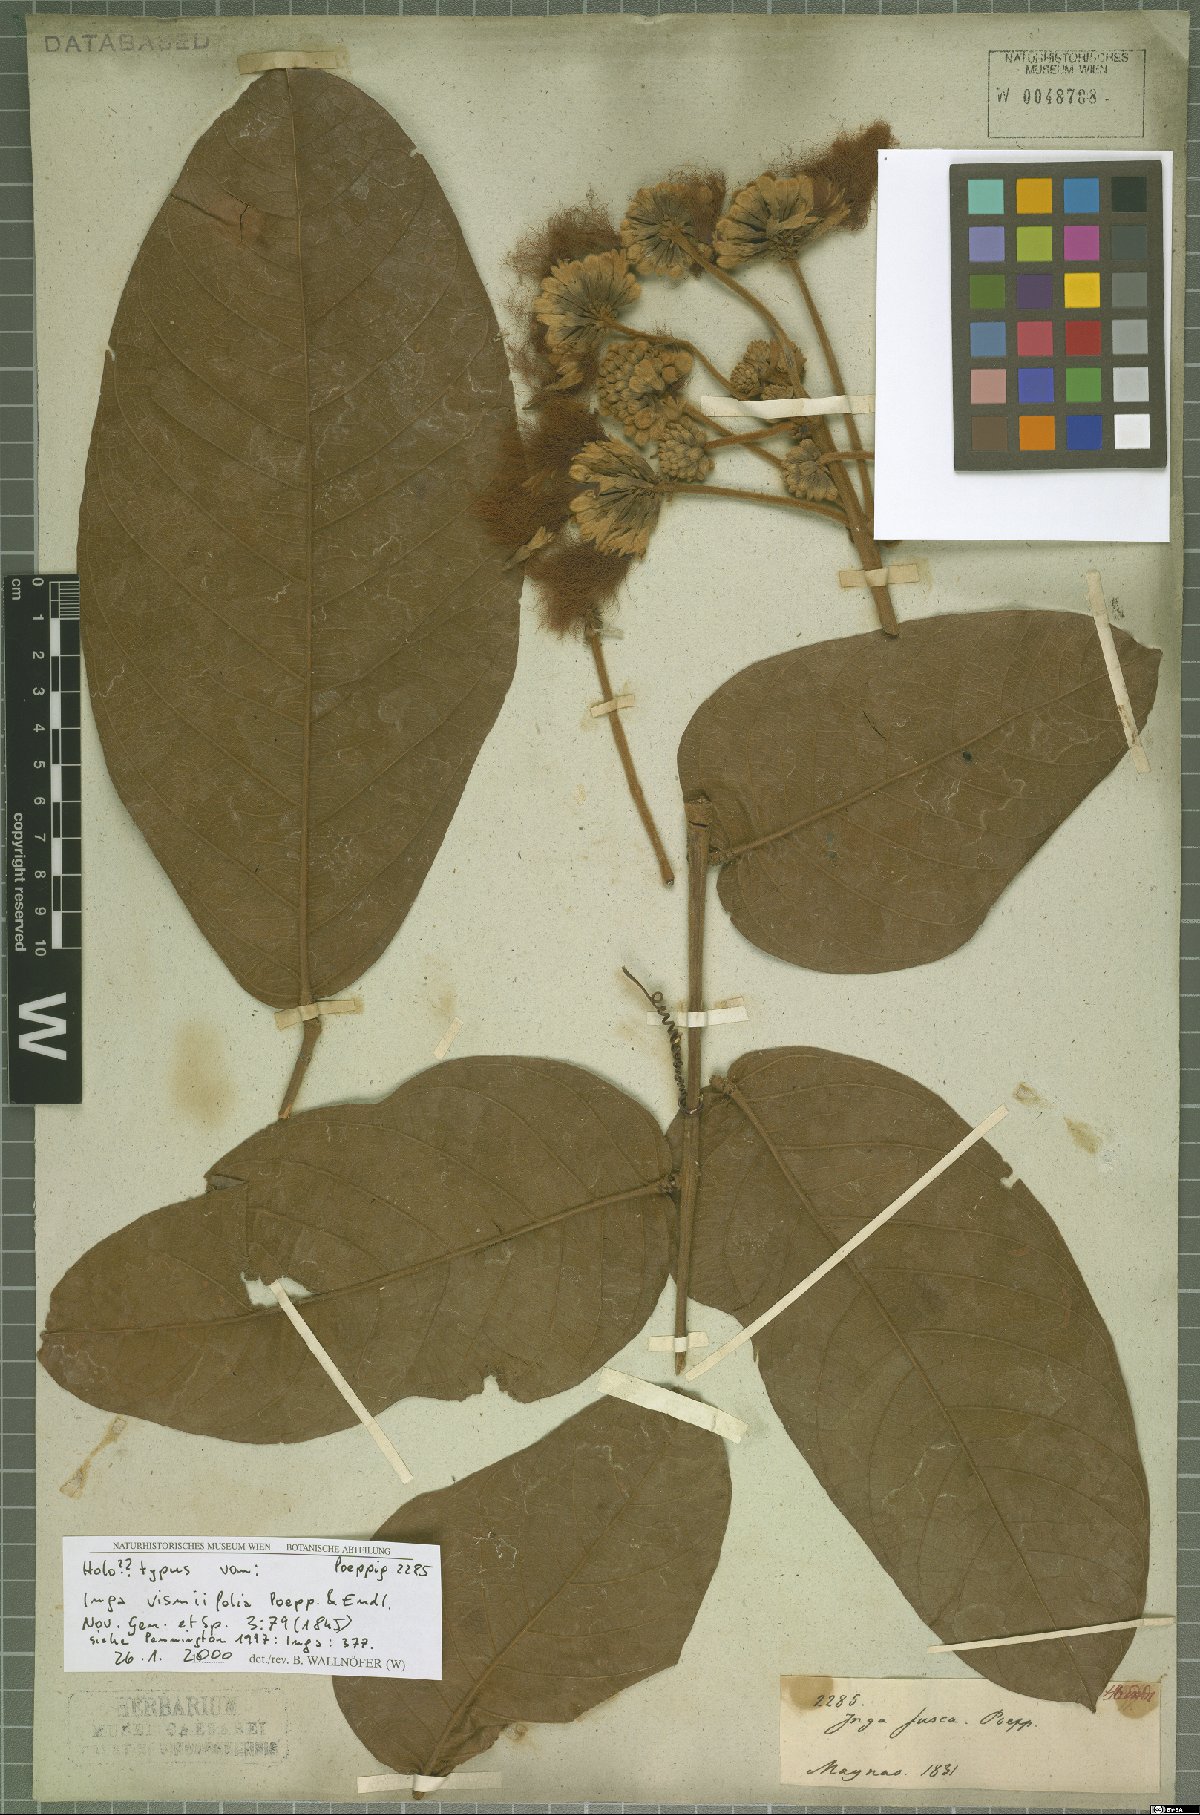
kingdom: Plantae
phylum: Tracheophyta
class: Magnoliopsida
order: Fabales
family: Fabaceae
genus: Inga
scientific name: Inga vismiifolia
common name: Howler monkey inga
